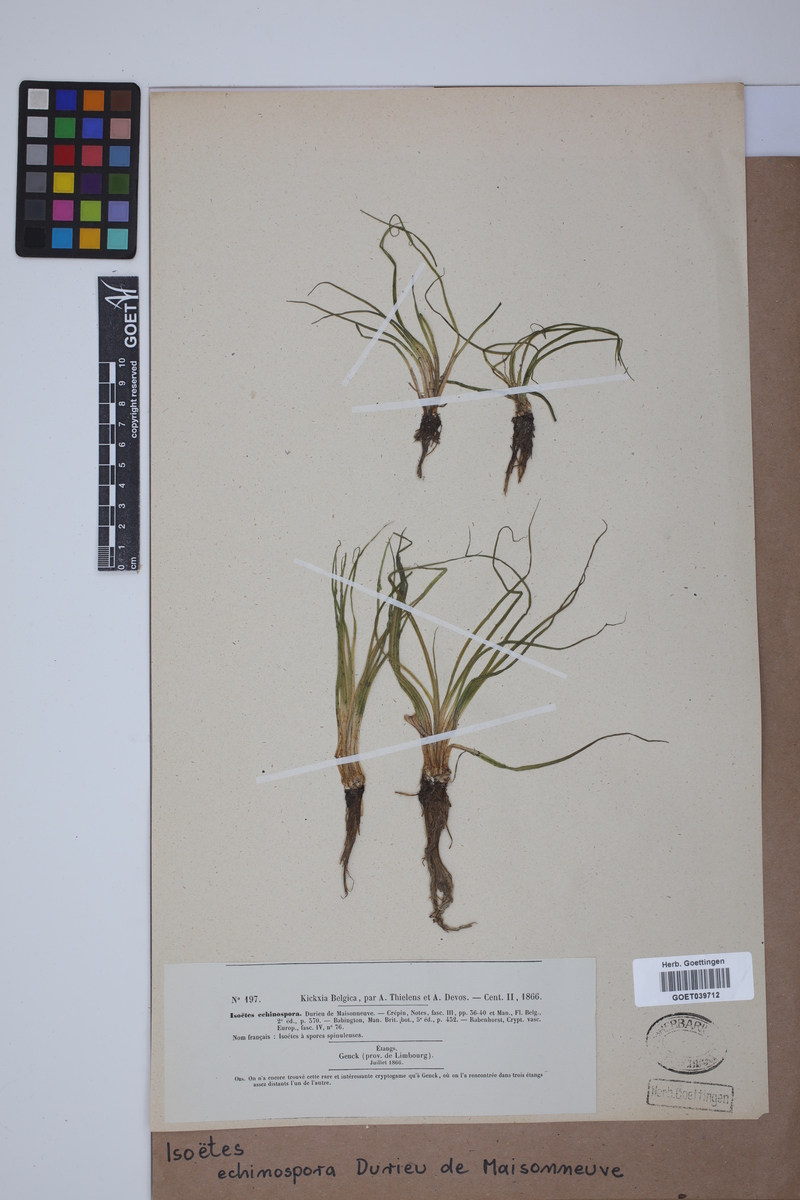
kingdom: Plantae
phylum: Tracheophyta
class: Lycopodiopsida
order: Isoetales
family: Isoetaceae
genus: Isoetes
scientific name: Isoetes echinospora
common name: Spring quillwort
